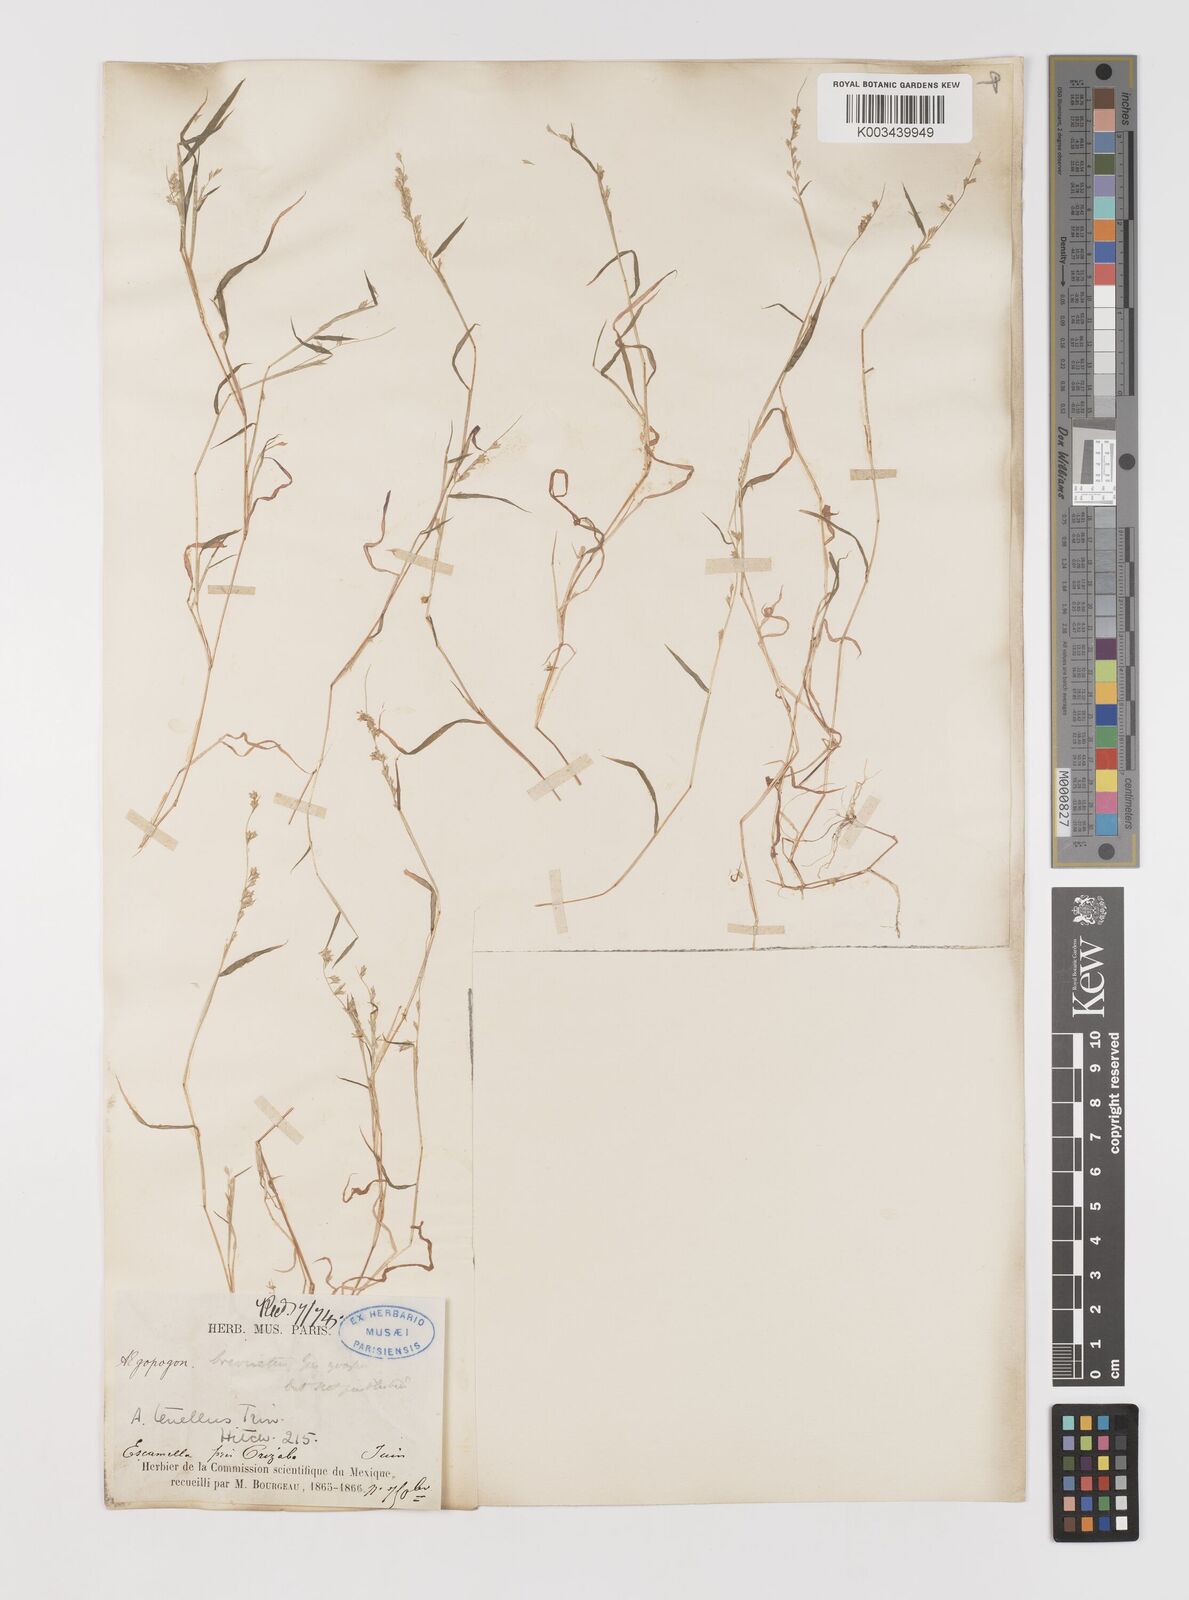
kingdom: Plantae
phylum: Tracheophyta
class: Liliopsida
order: Poales
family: Poaceae
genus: Muhlenbergia
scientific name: Muhlenbergia uniseta
